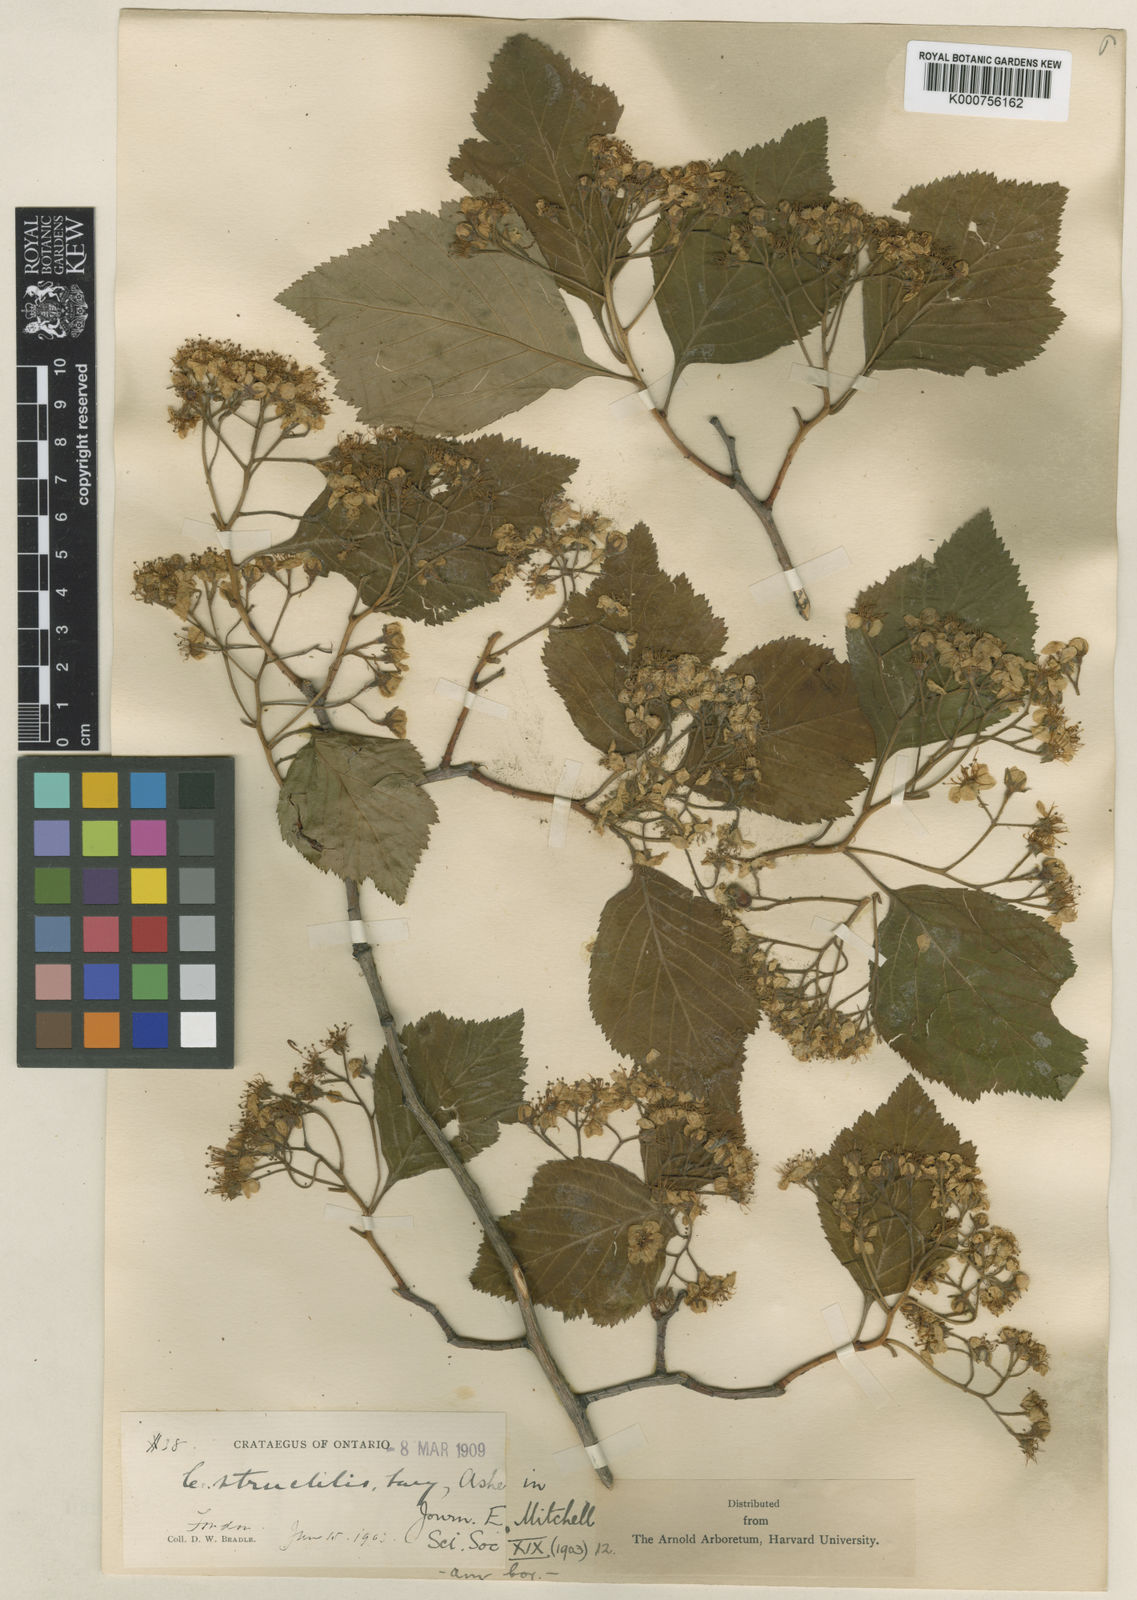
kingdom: Plantae
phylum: Tracheophyta
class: Magnoliopsida
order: Rosales
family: Rosaceae
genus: Crataegus
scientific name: Crataegus calpodendron
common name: Pear hawthorn
